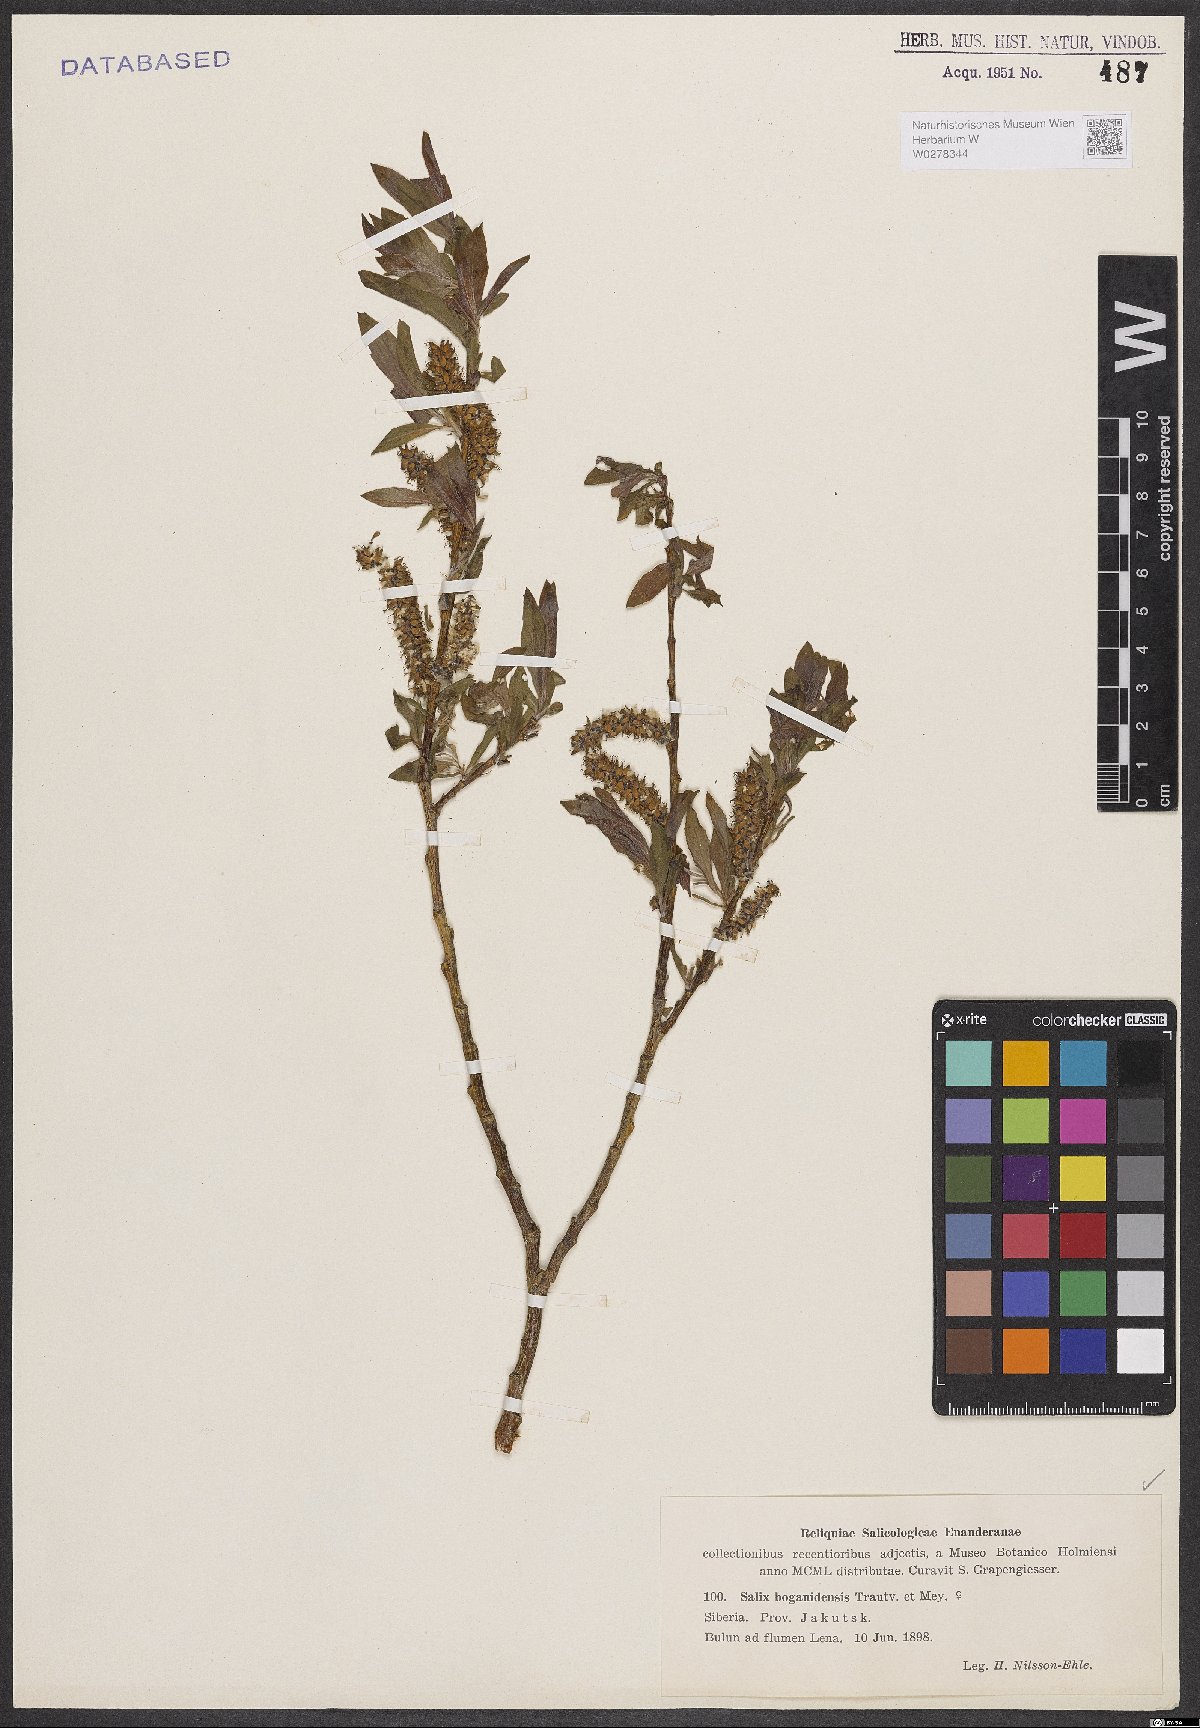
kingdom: Plantae
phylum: Tracheophyta
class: Magnoliopsida
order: Malpighiales
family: Salicaceae
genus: Salix
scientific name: Salix boganidensis
